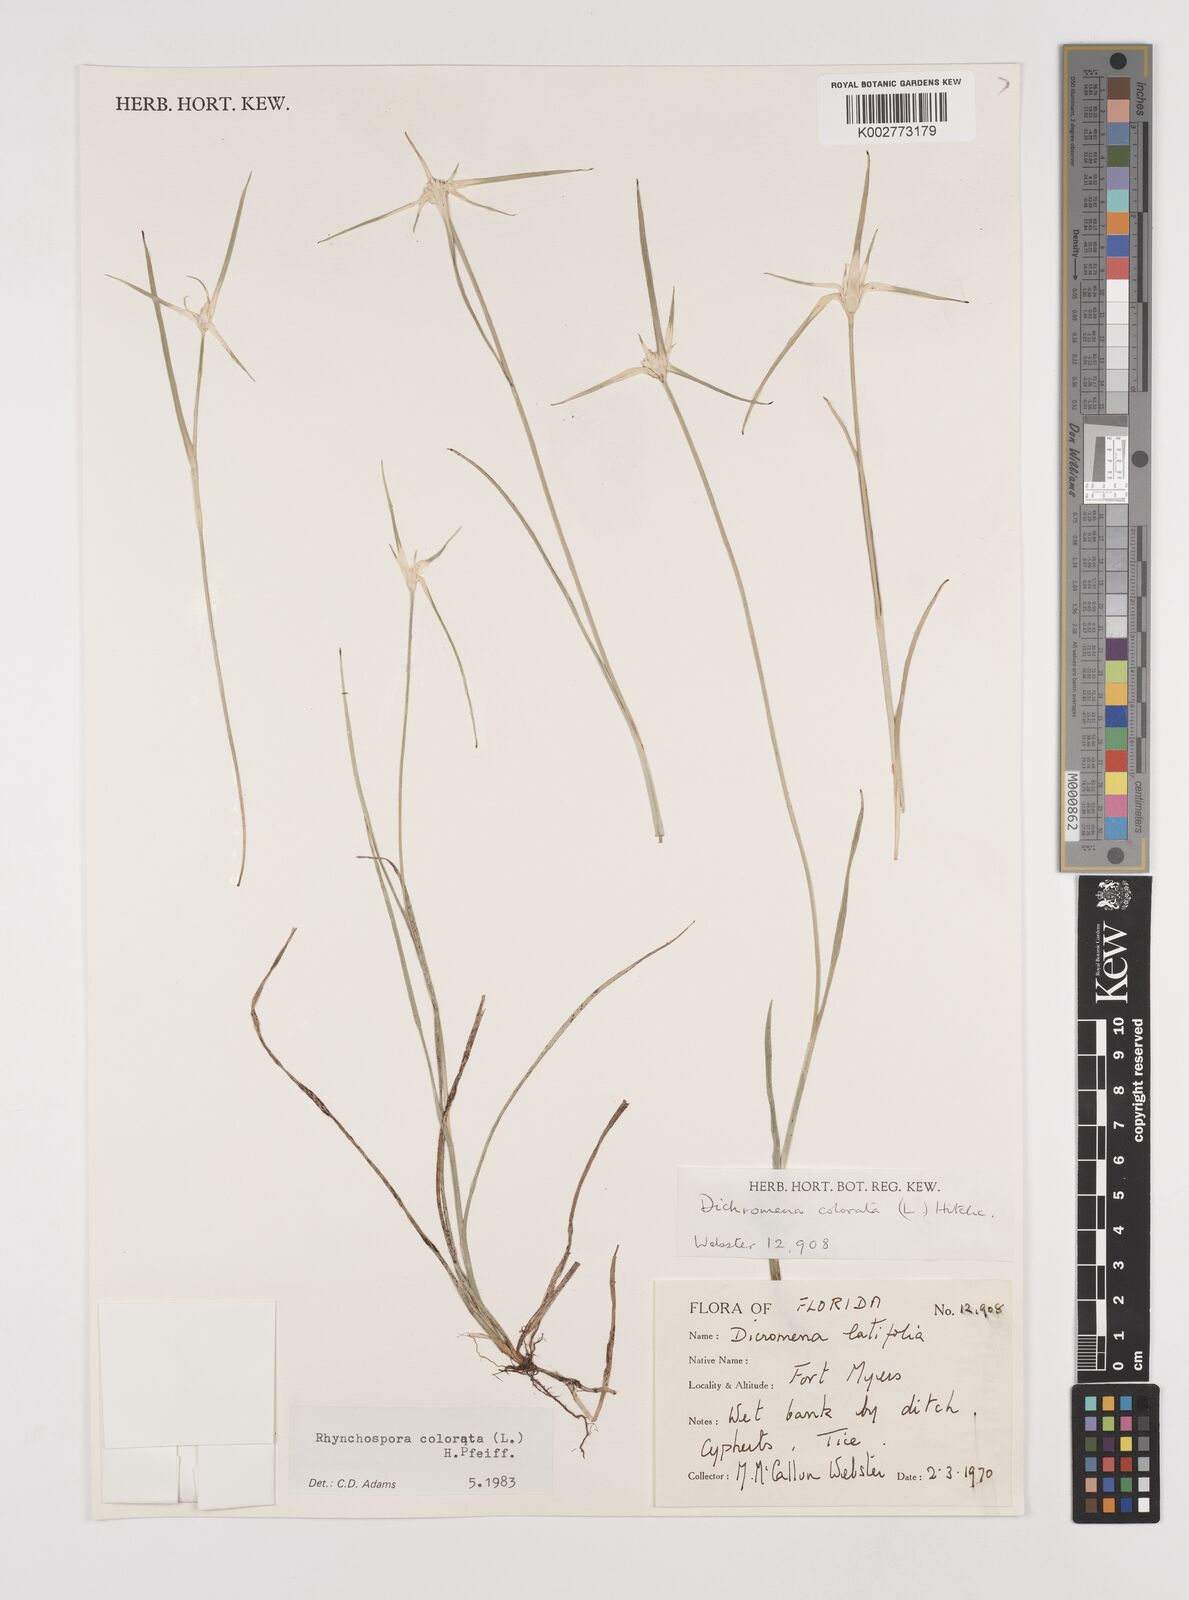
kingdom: Plantae
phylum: Tracheophyta
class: Liliopsida
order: Poales
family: Cyperaceae
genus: Rhynchospora
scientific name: Rhynchospora colorata
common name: Star sedge
